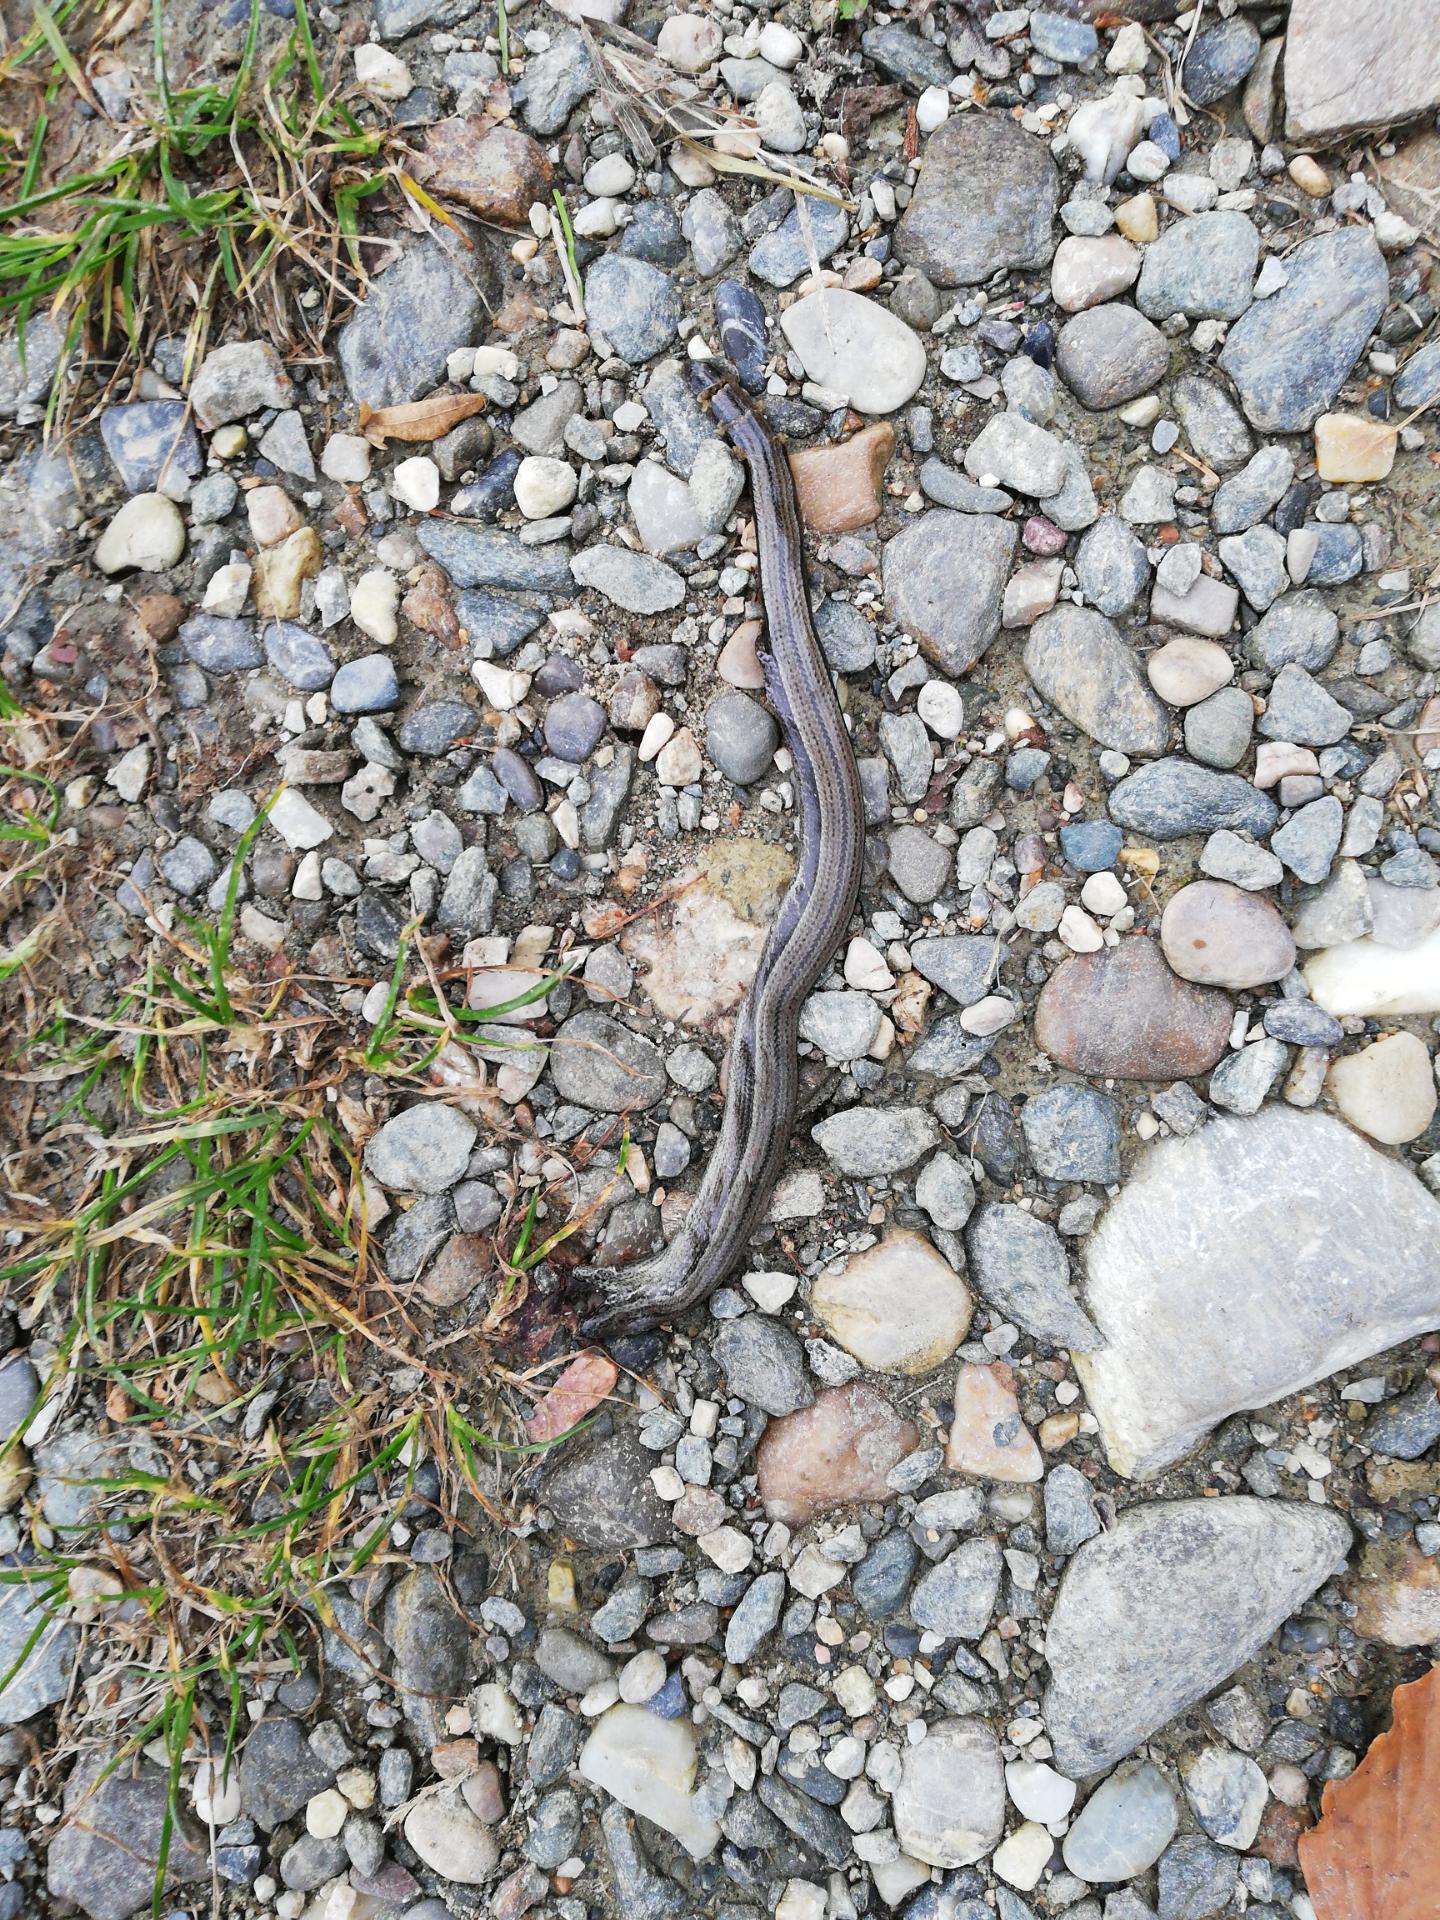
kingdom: Animalia
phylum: Chordata
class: Squamata
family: Anguidae
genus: Anguis
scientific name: Anguis fragilis
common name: Slow worm
